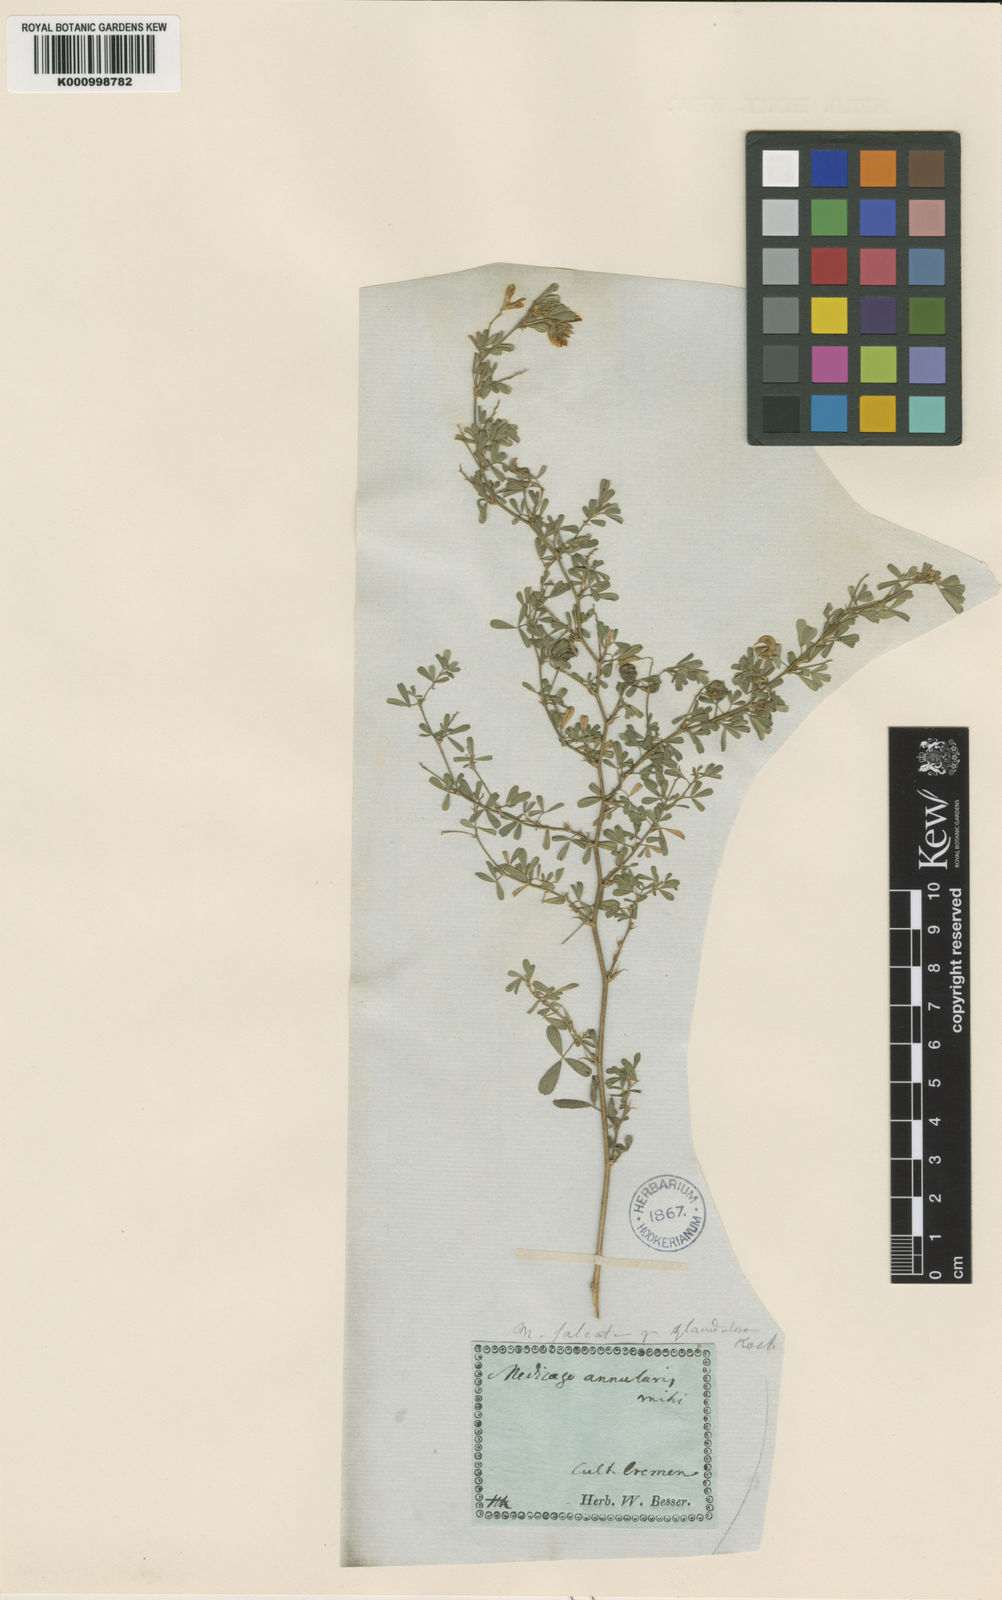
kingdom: Plantae
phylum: Tracheophyta
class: Magnoliopsida
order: Fabales
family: Fabaceae
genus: Medicago
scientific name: Medicago sativa
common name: Alfalfa
